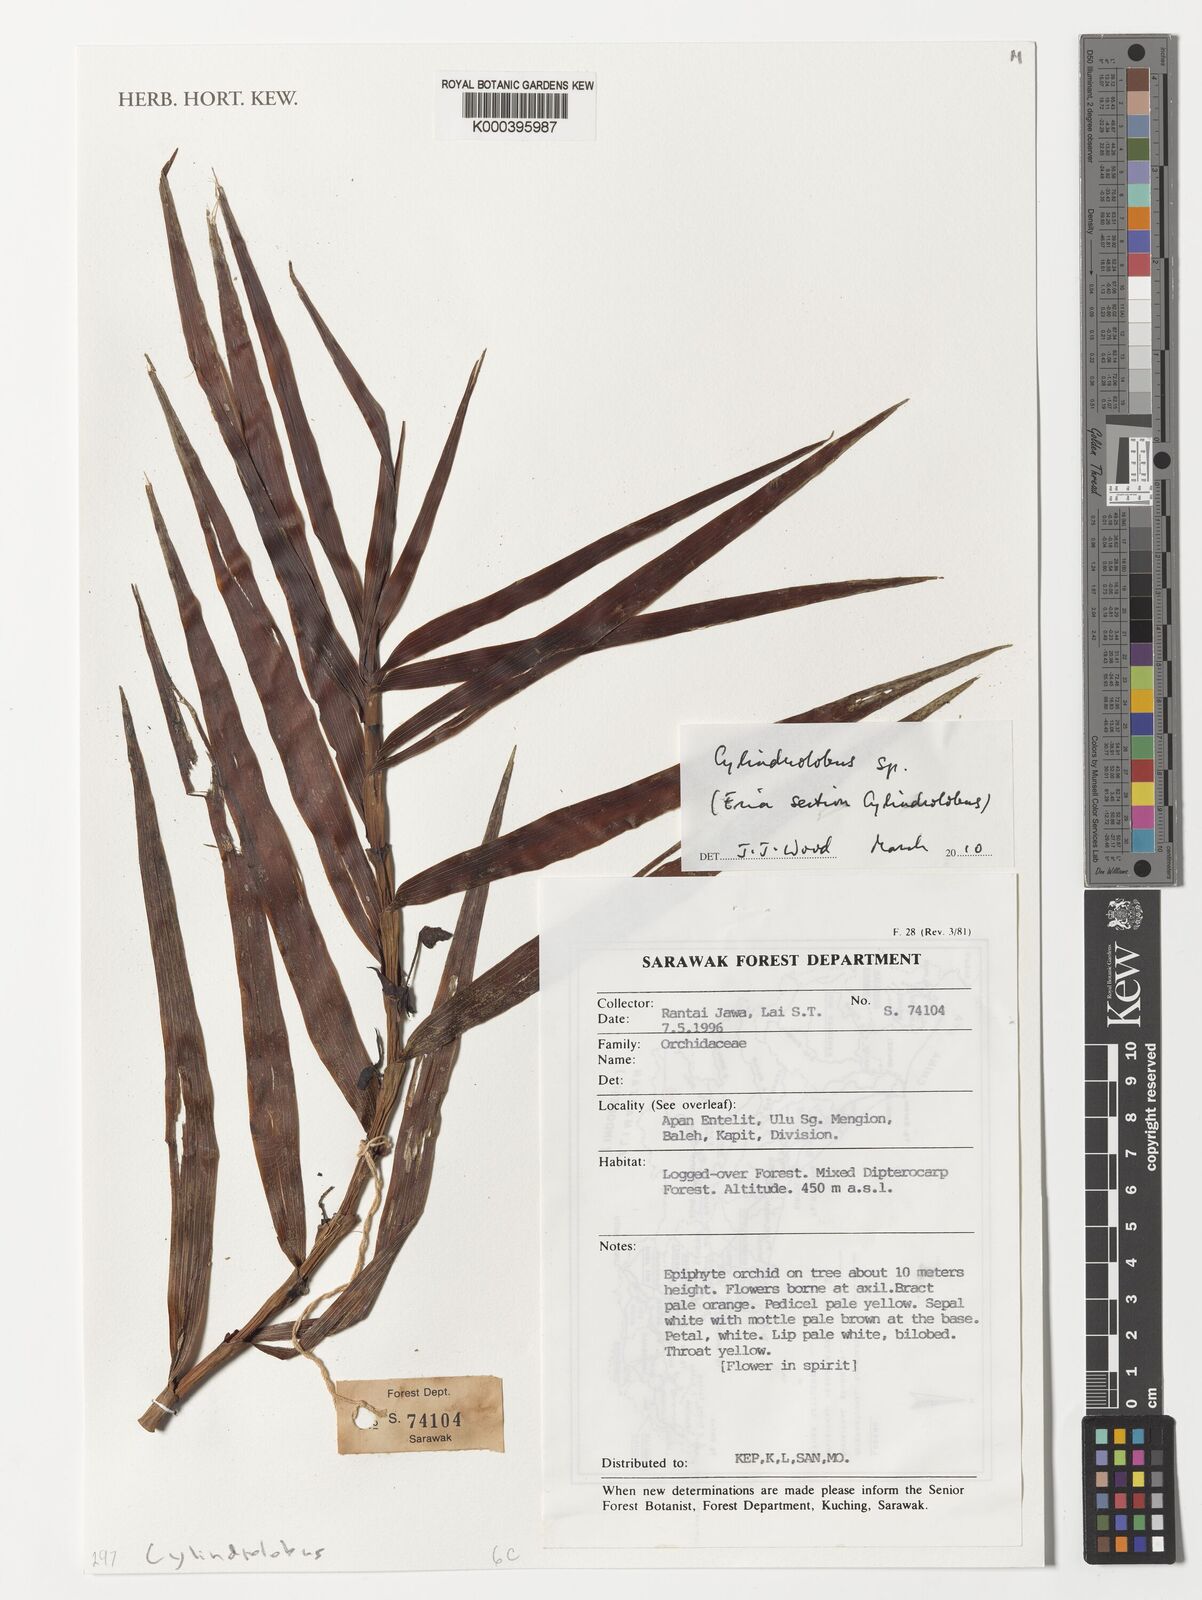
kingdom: Plantae
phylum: Tracheophyta
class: Liliopsida
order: Asparagales
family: Orchidaceae
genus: Eria
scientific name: Eria
